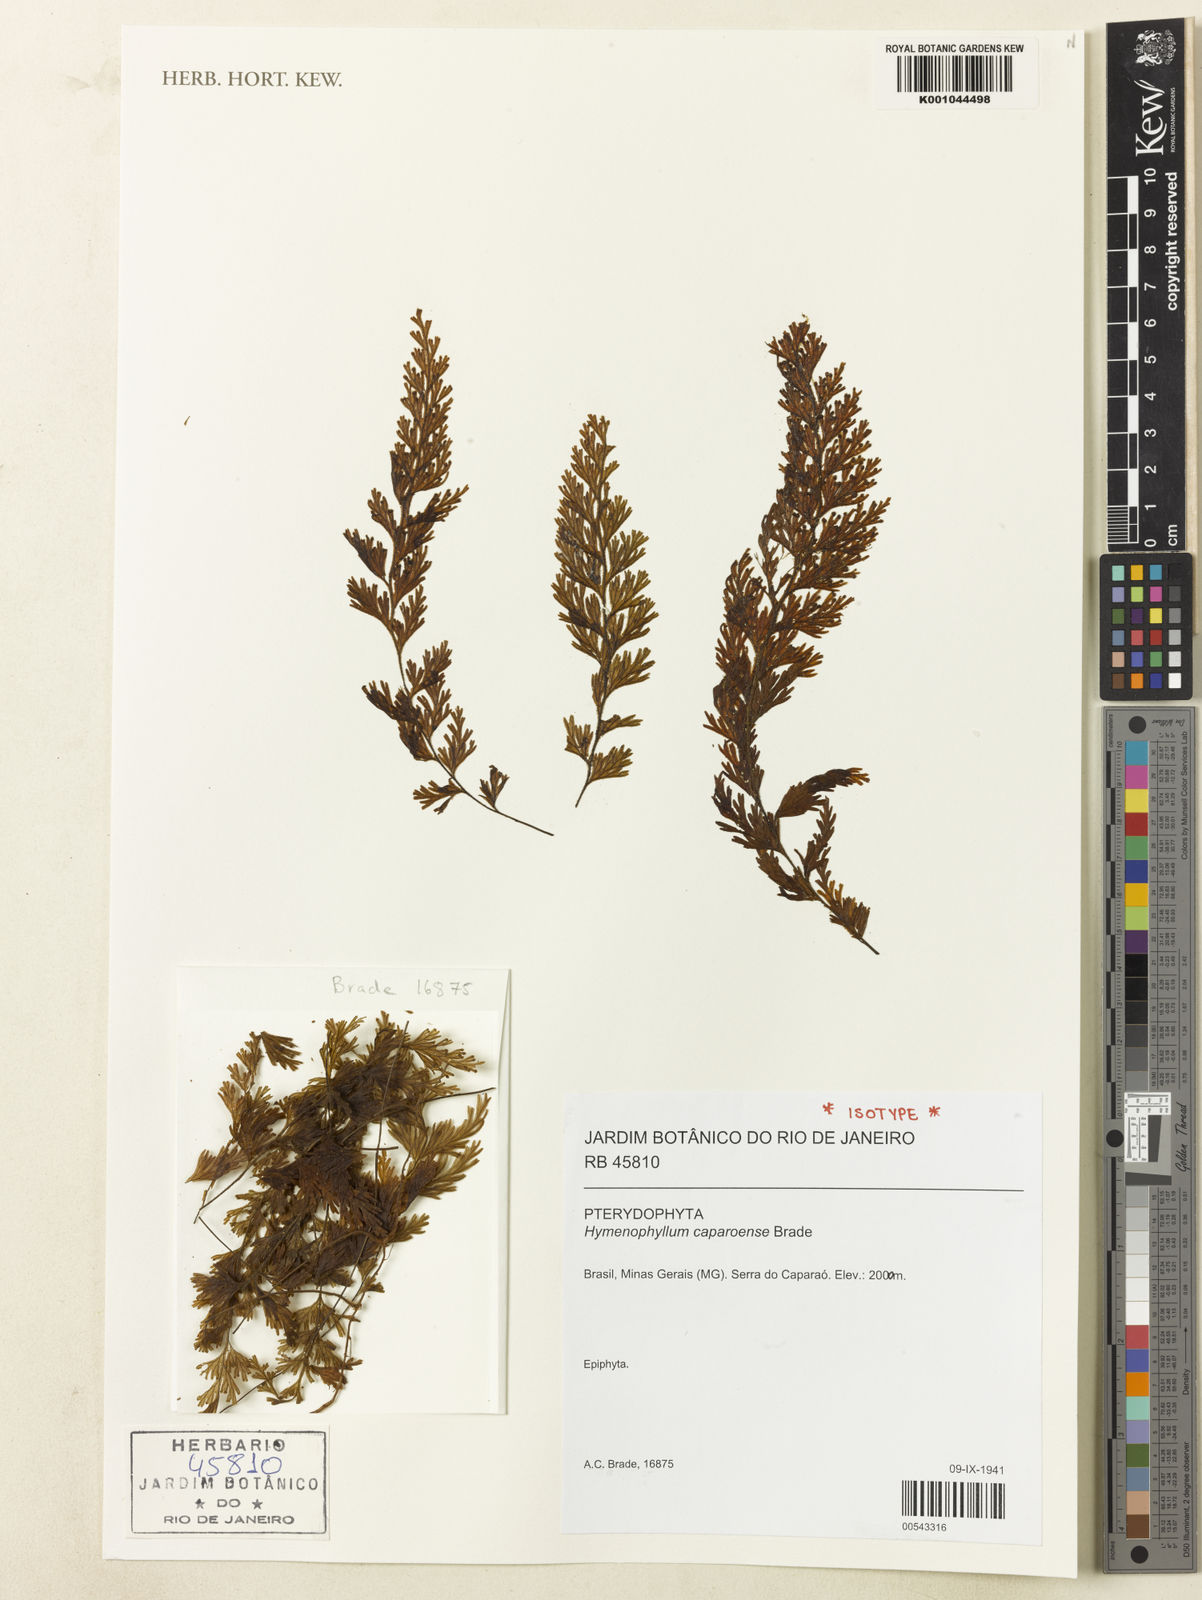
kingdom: Plantae
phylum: Tracheophyta
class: Polypodiopsida
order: Hymenophyllales
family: Hymenophyllaceae
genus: Hymenophyllum
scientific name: Hymenophyllum
